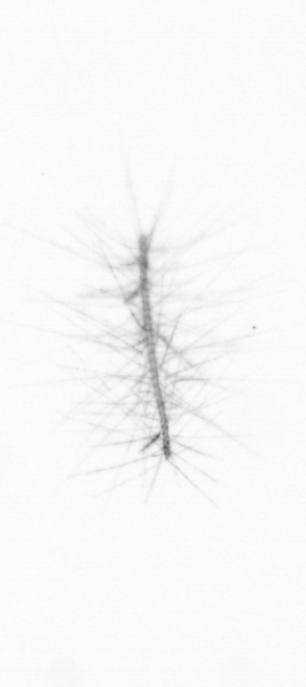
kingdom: Chromista
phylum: Ochrophyta
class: Bacillariophyceae
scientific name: Bacillariophyceae
